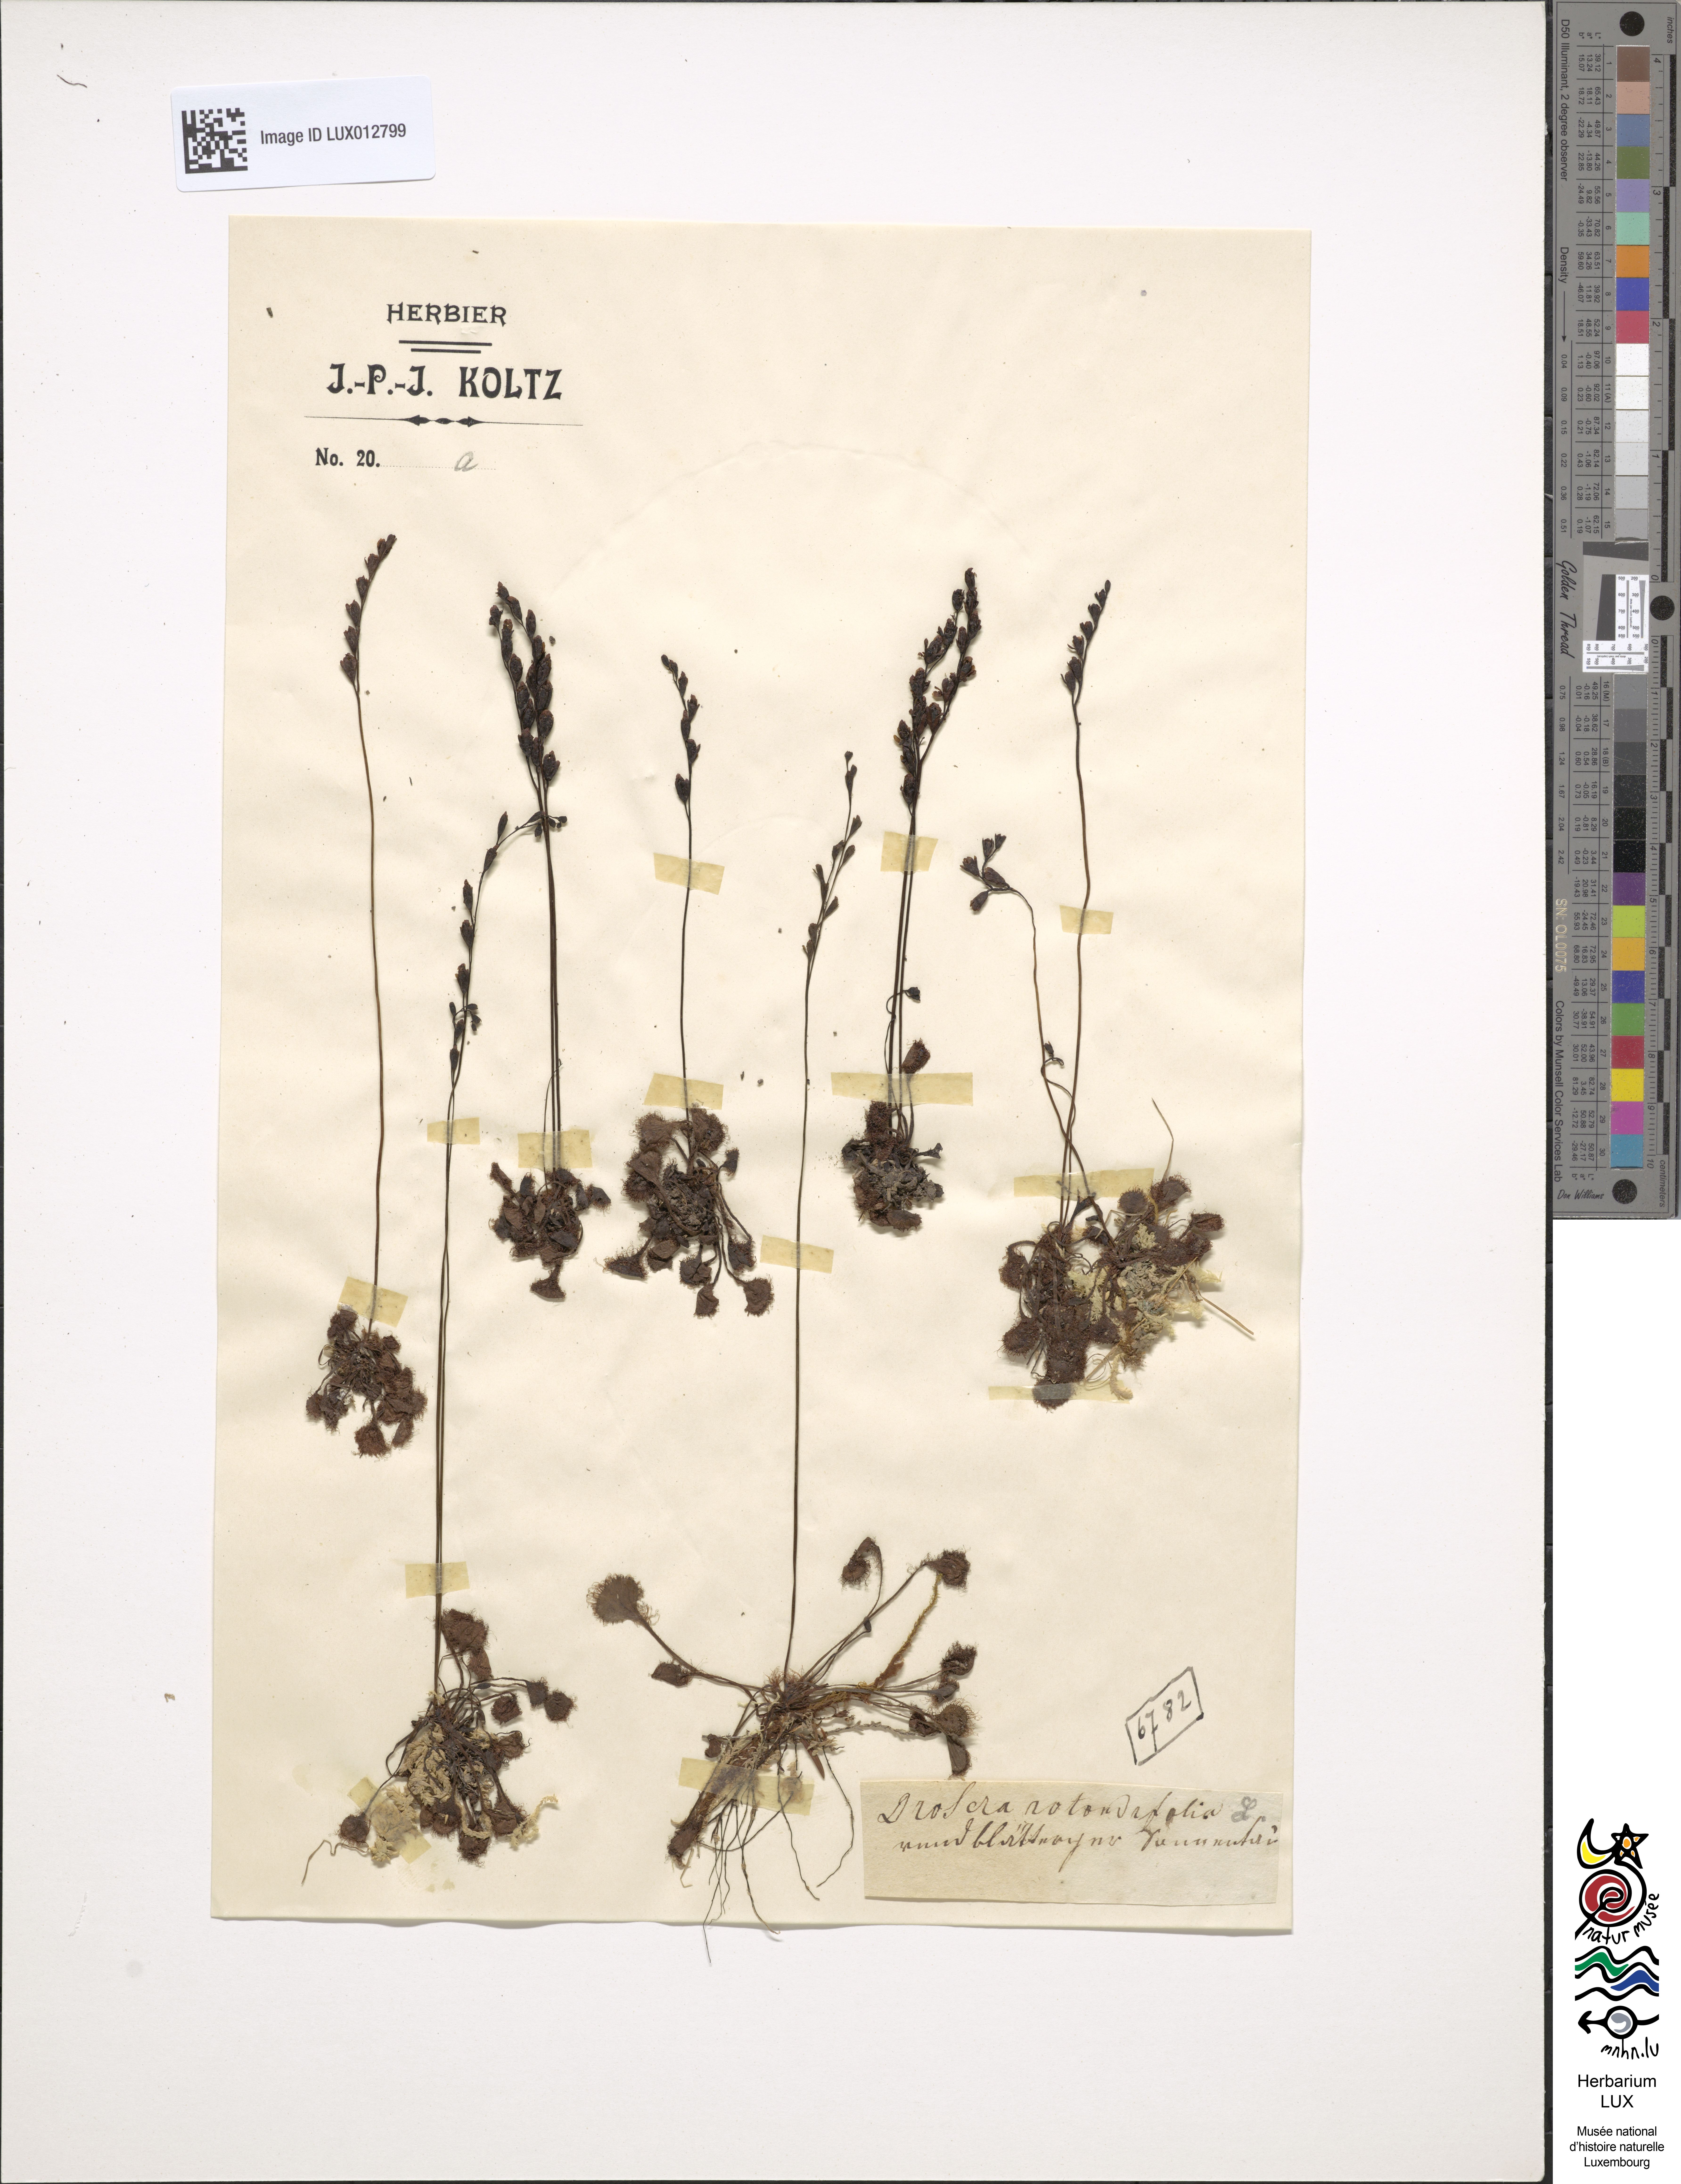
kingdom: Plantae
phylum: Tracheophyta
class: Magnoliopsida
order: Caryophyllales
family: Droseraceae
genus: Drosera
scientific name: Drosera rotundifolia
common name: Round-leaved sundew
